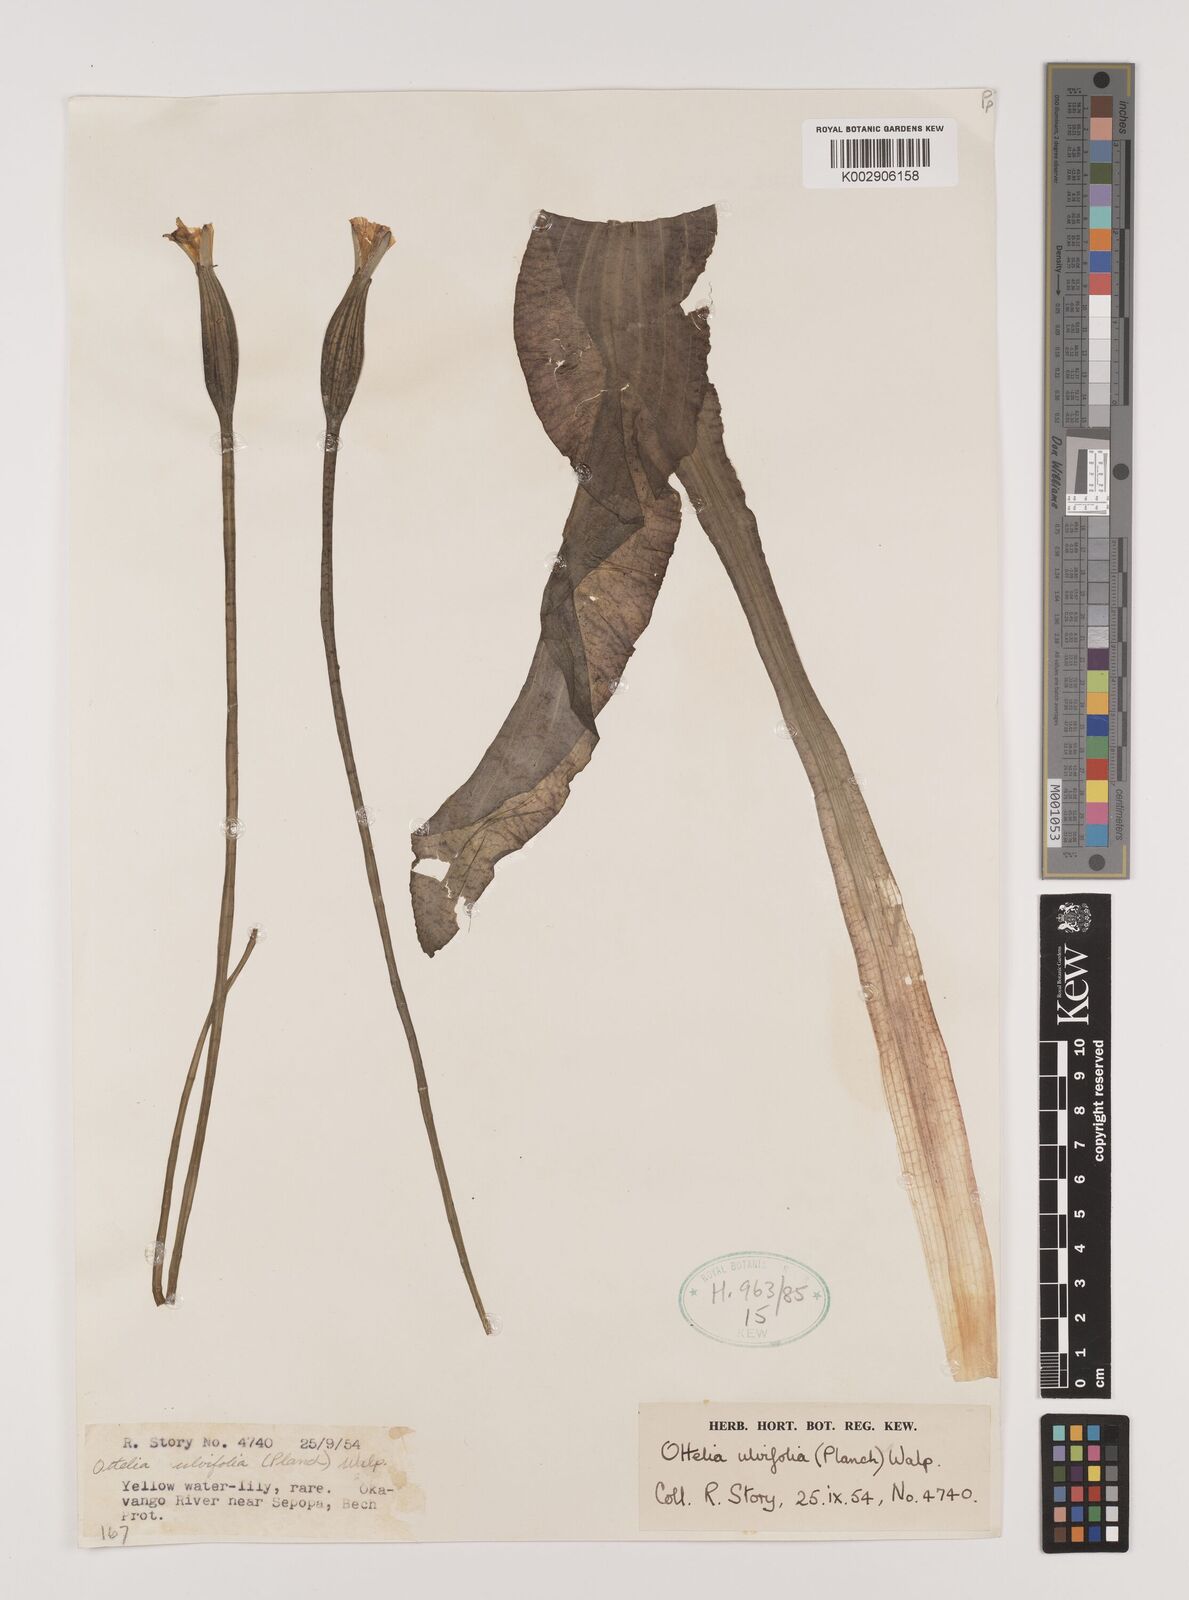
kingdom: Plantae
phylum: Tracheophyta
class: Liliopsida
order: Alismatales
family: Hydrocharitaceae
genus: Ottelia
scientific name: Ottelia ulvifolia
